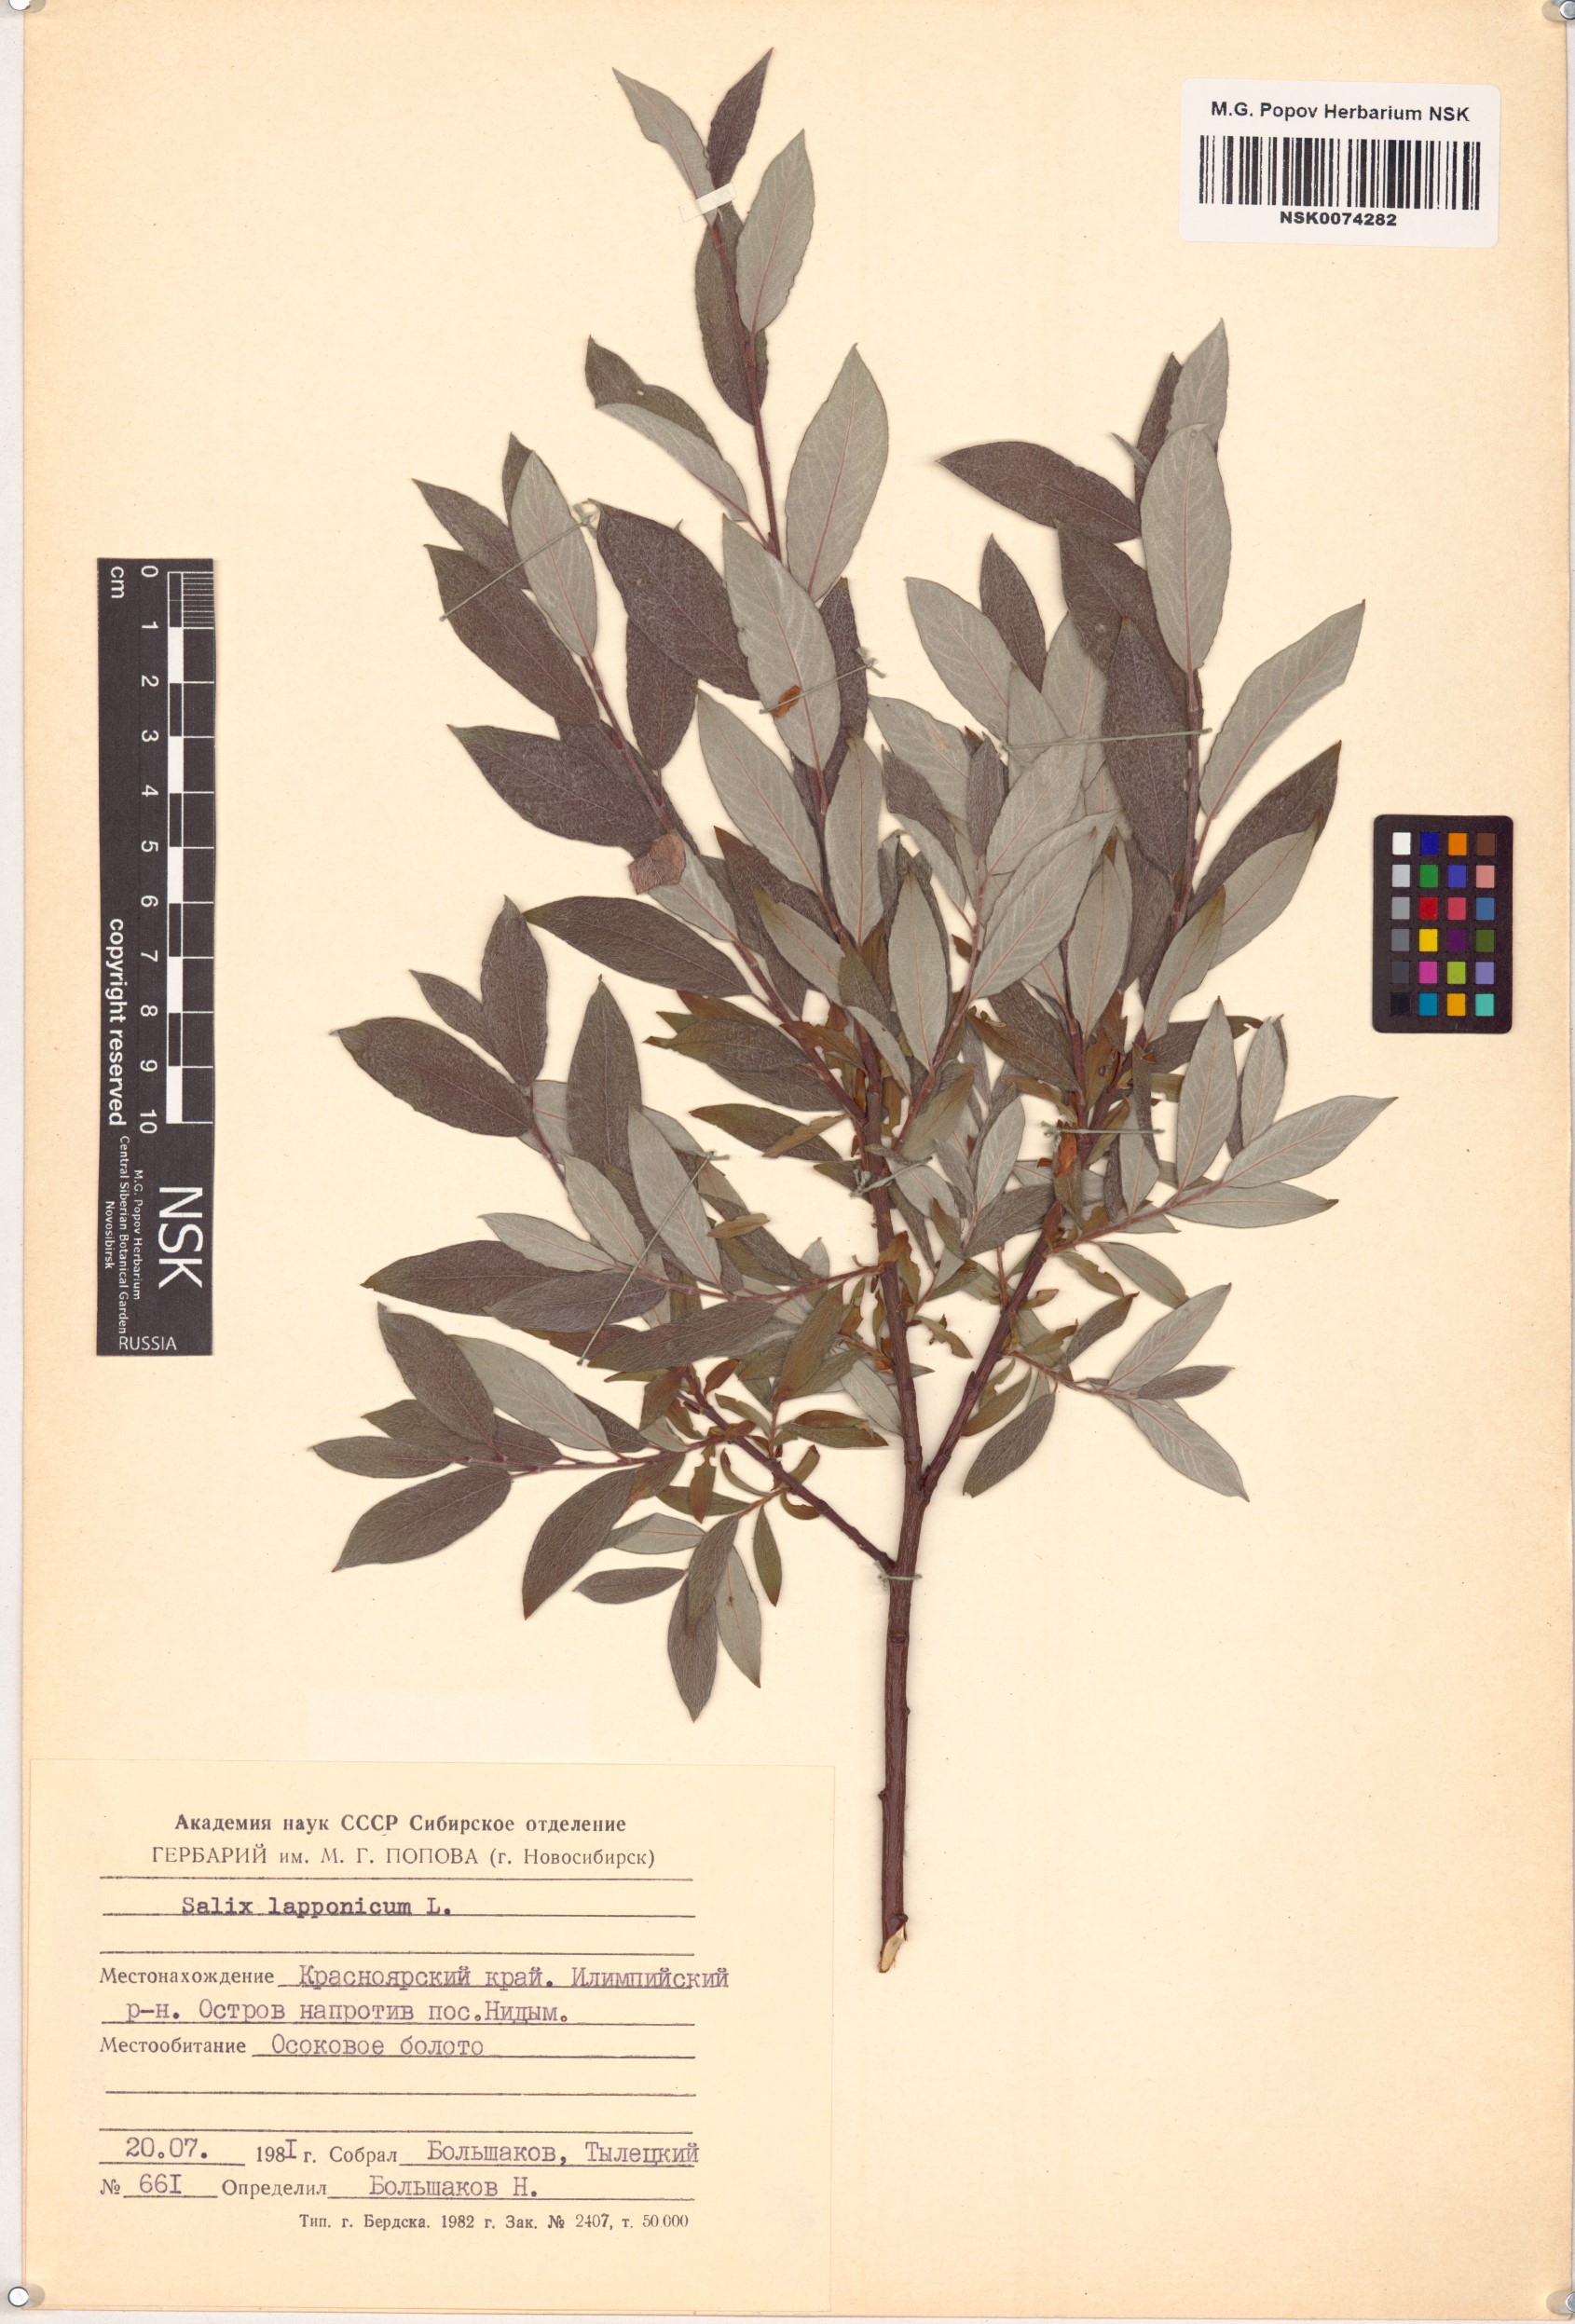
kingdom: Plantae
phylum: Tracheophyta
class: Magnoliopsida
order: Malpighiales
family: Salicaceae
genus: Salix
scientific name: Salix lapponum
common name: Downy willow
